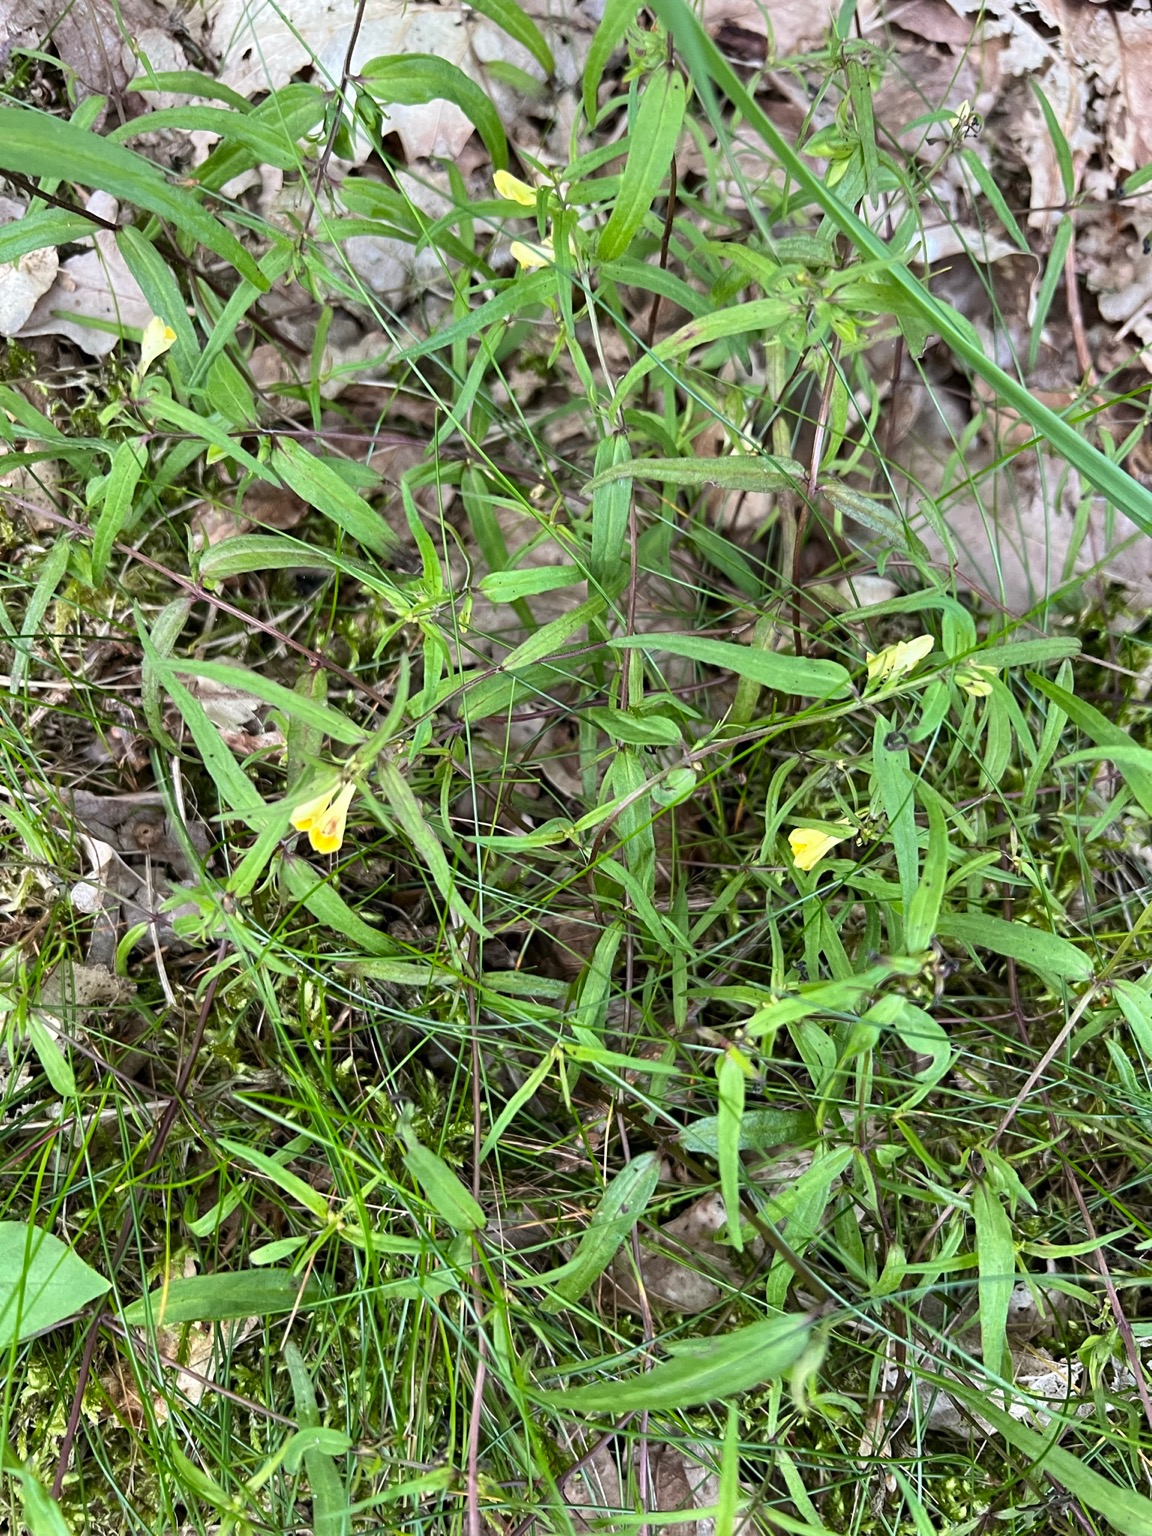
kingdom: Plantae
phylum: Tracheophyta
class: Magnoliopsida
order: Lamiales
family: Orobanchaceae
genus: Melampyrum
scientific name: Melampyrum pratense
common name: Almindelig kohvede
